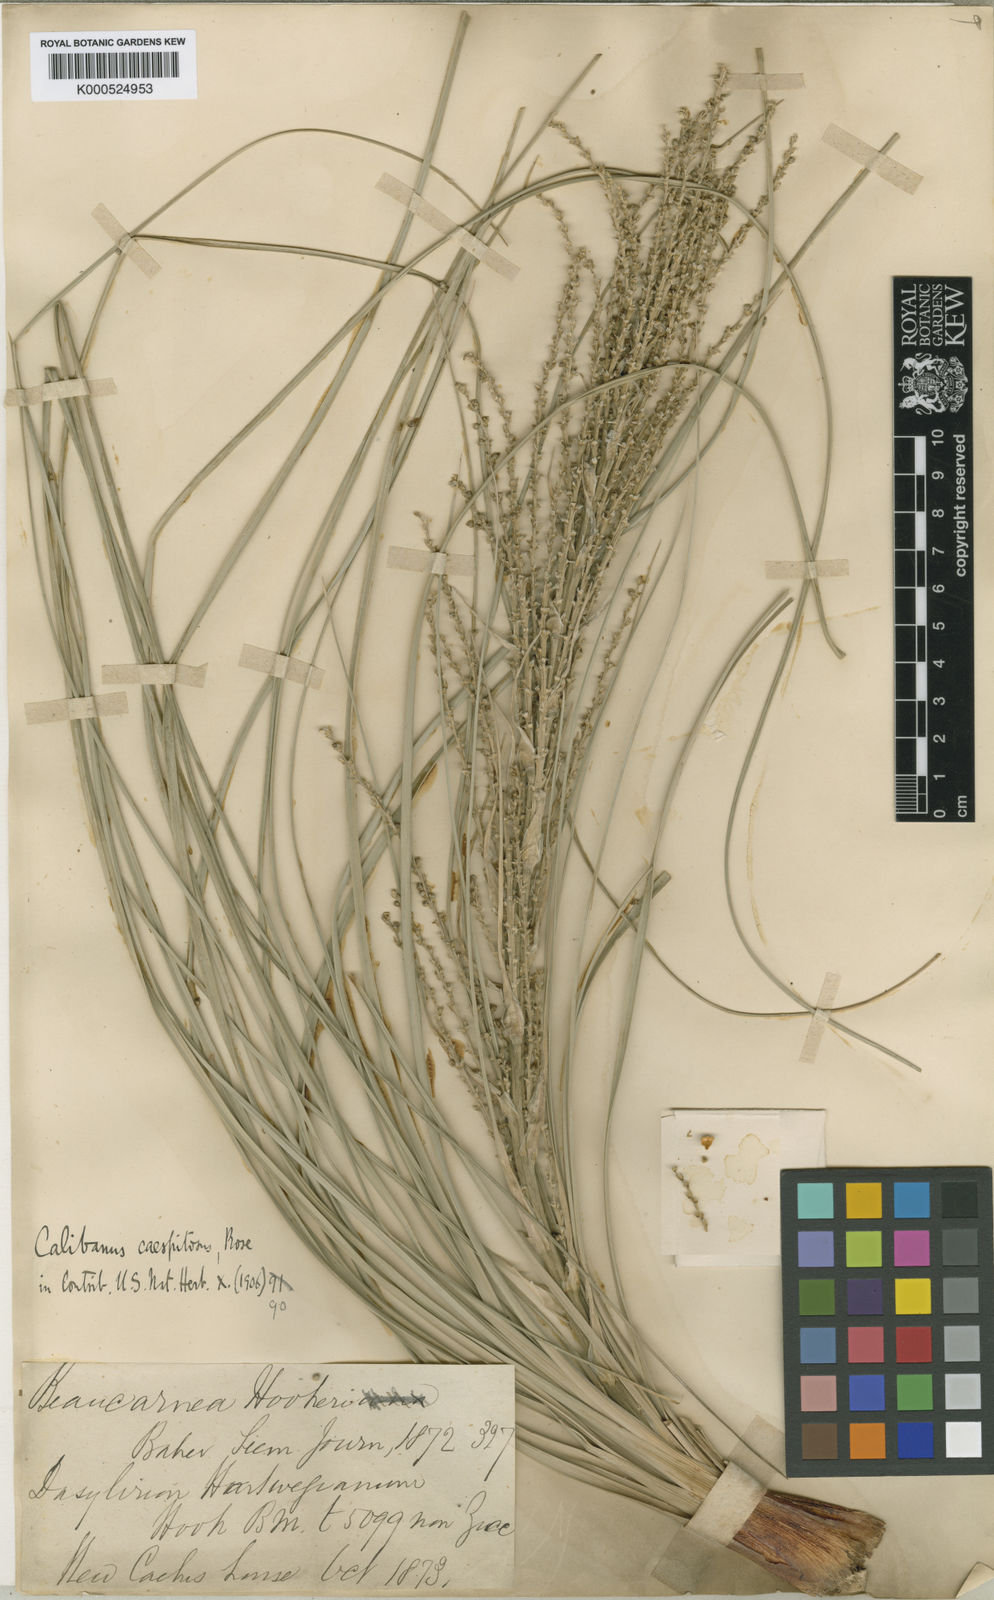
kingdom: Plantae
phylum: Tracheophyta
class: Liliopsida
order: Asparagales
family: Asparagaceae
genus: Beaucarnea
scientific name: Beaucarnea hookeri
